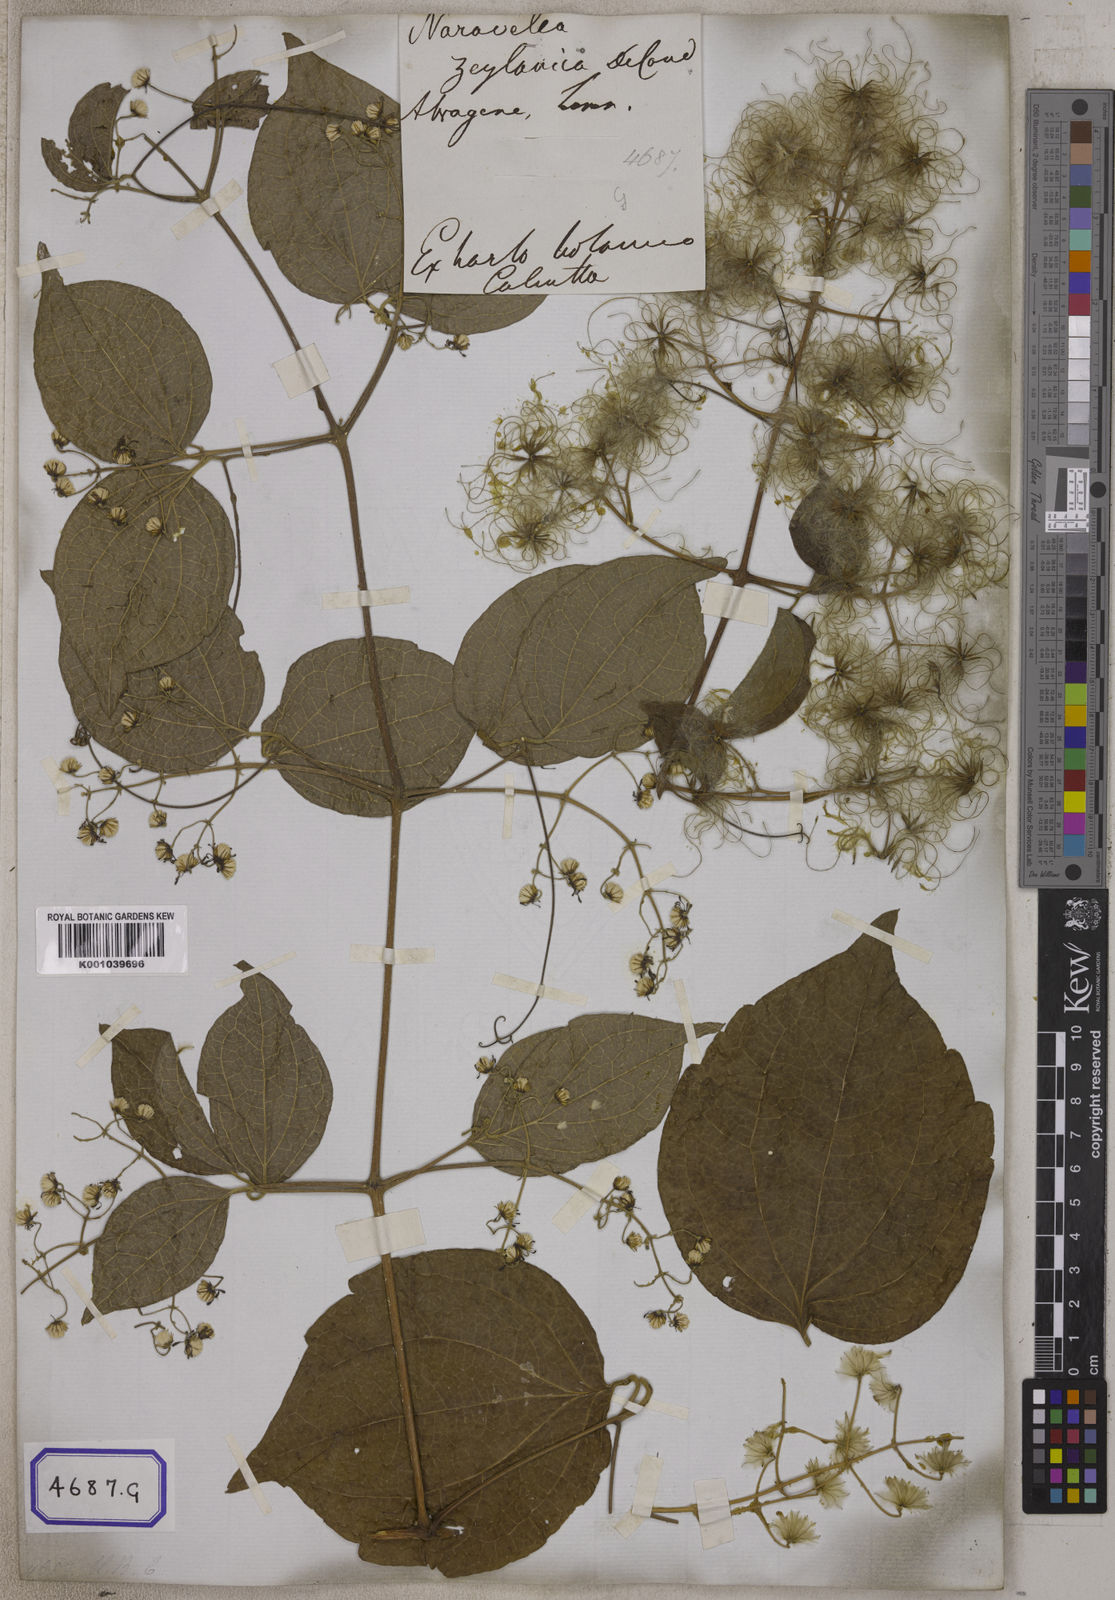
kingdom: Plantae
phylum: Tracheophyta
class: Magnoliopsida
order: Ranunculales
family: Ranunculaceae
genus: Clematis
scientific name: Clematis zeylanica
